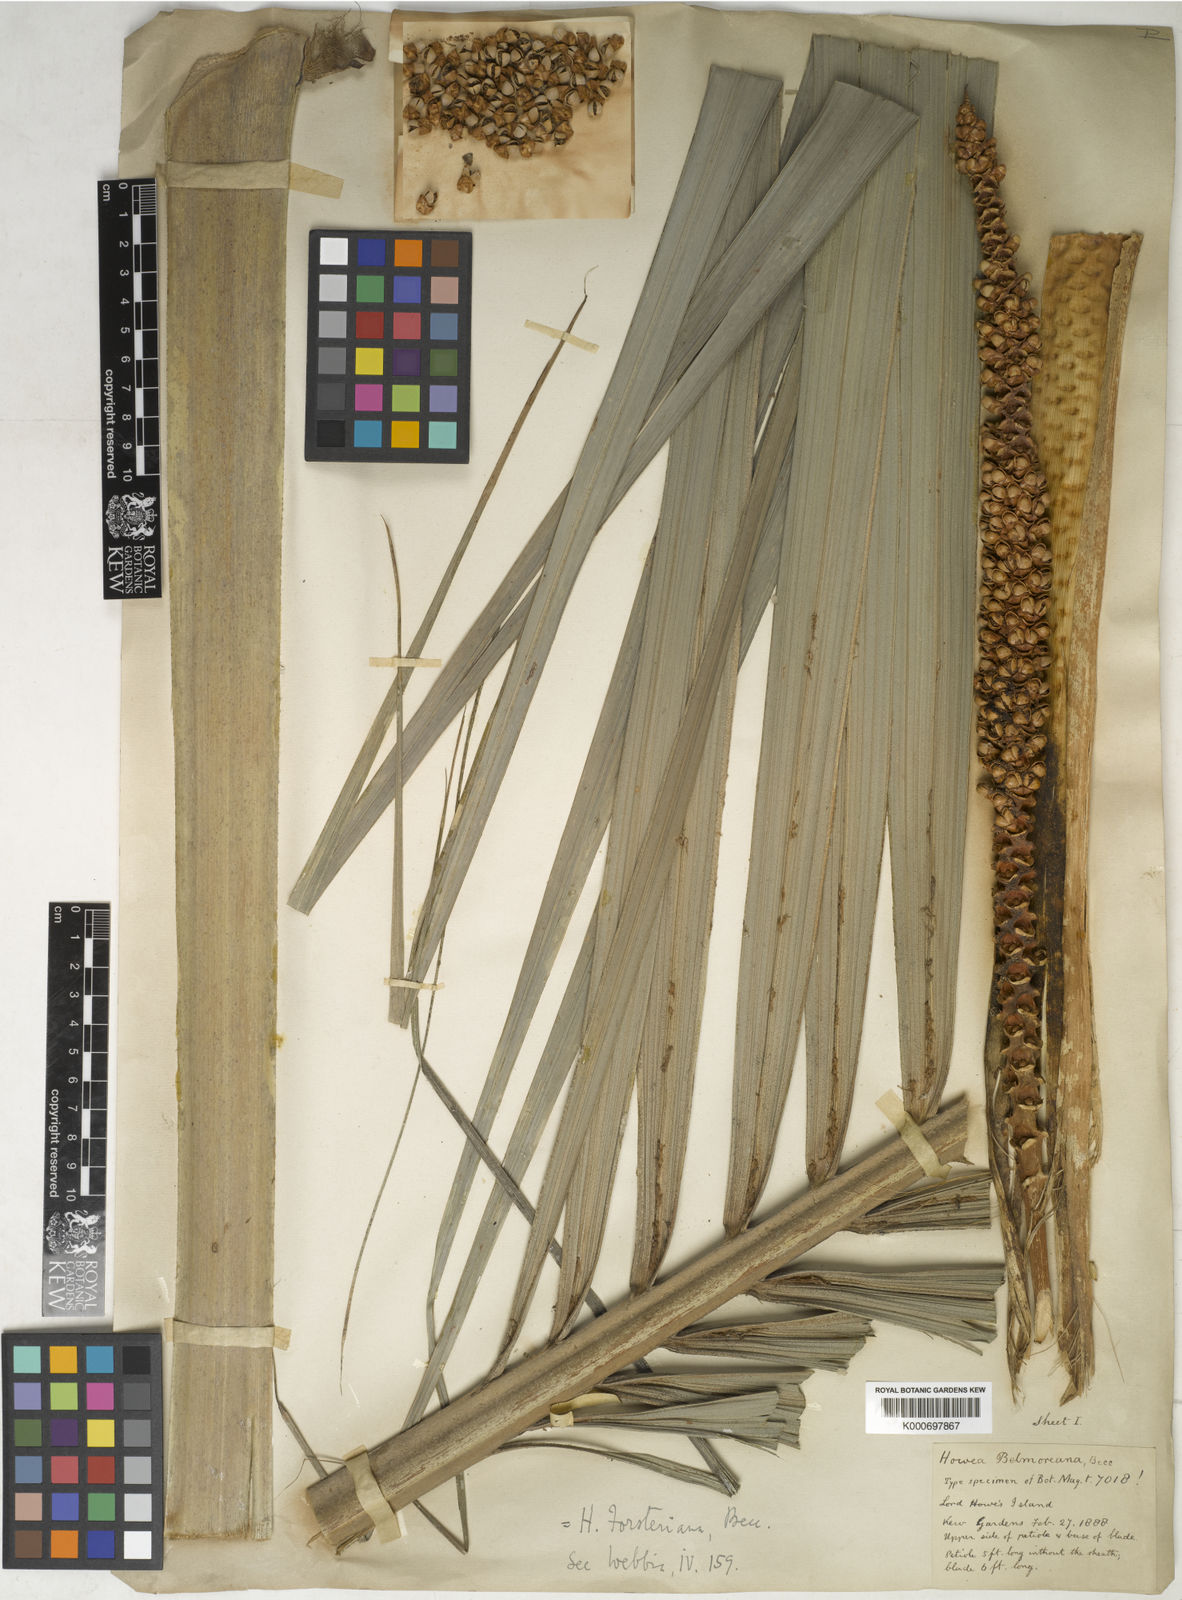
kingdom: Plantae
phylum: Tracheophyta
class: Liliopsida
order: Arecales
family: Arecaceae
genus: Howea
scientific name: Howea forsteriana
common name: Kentia palm
